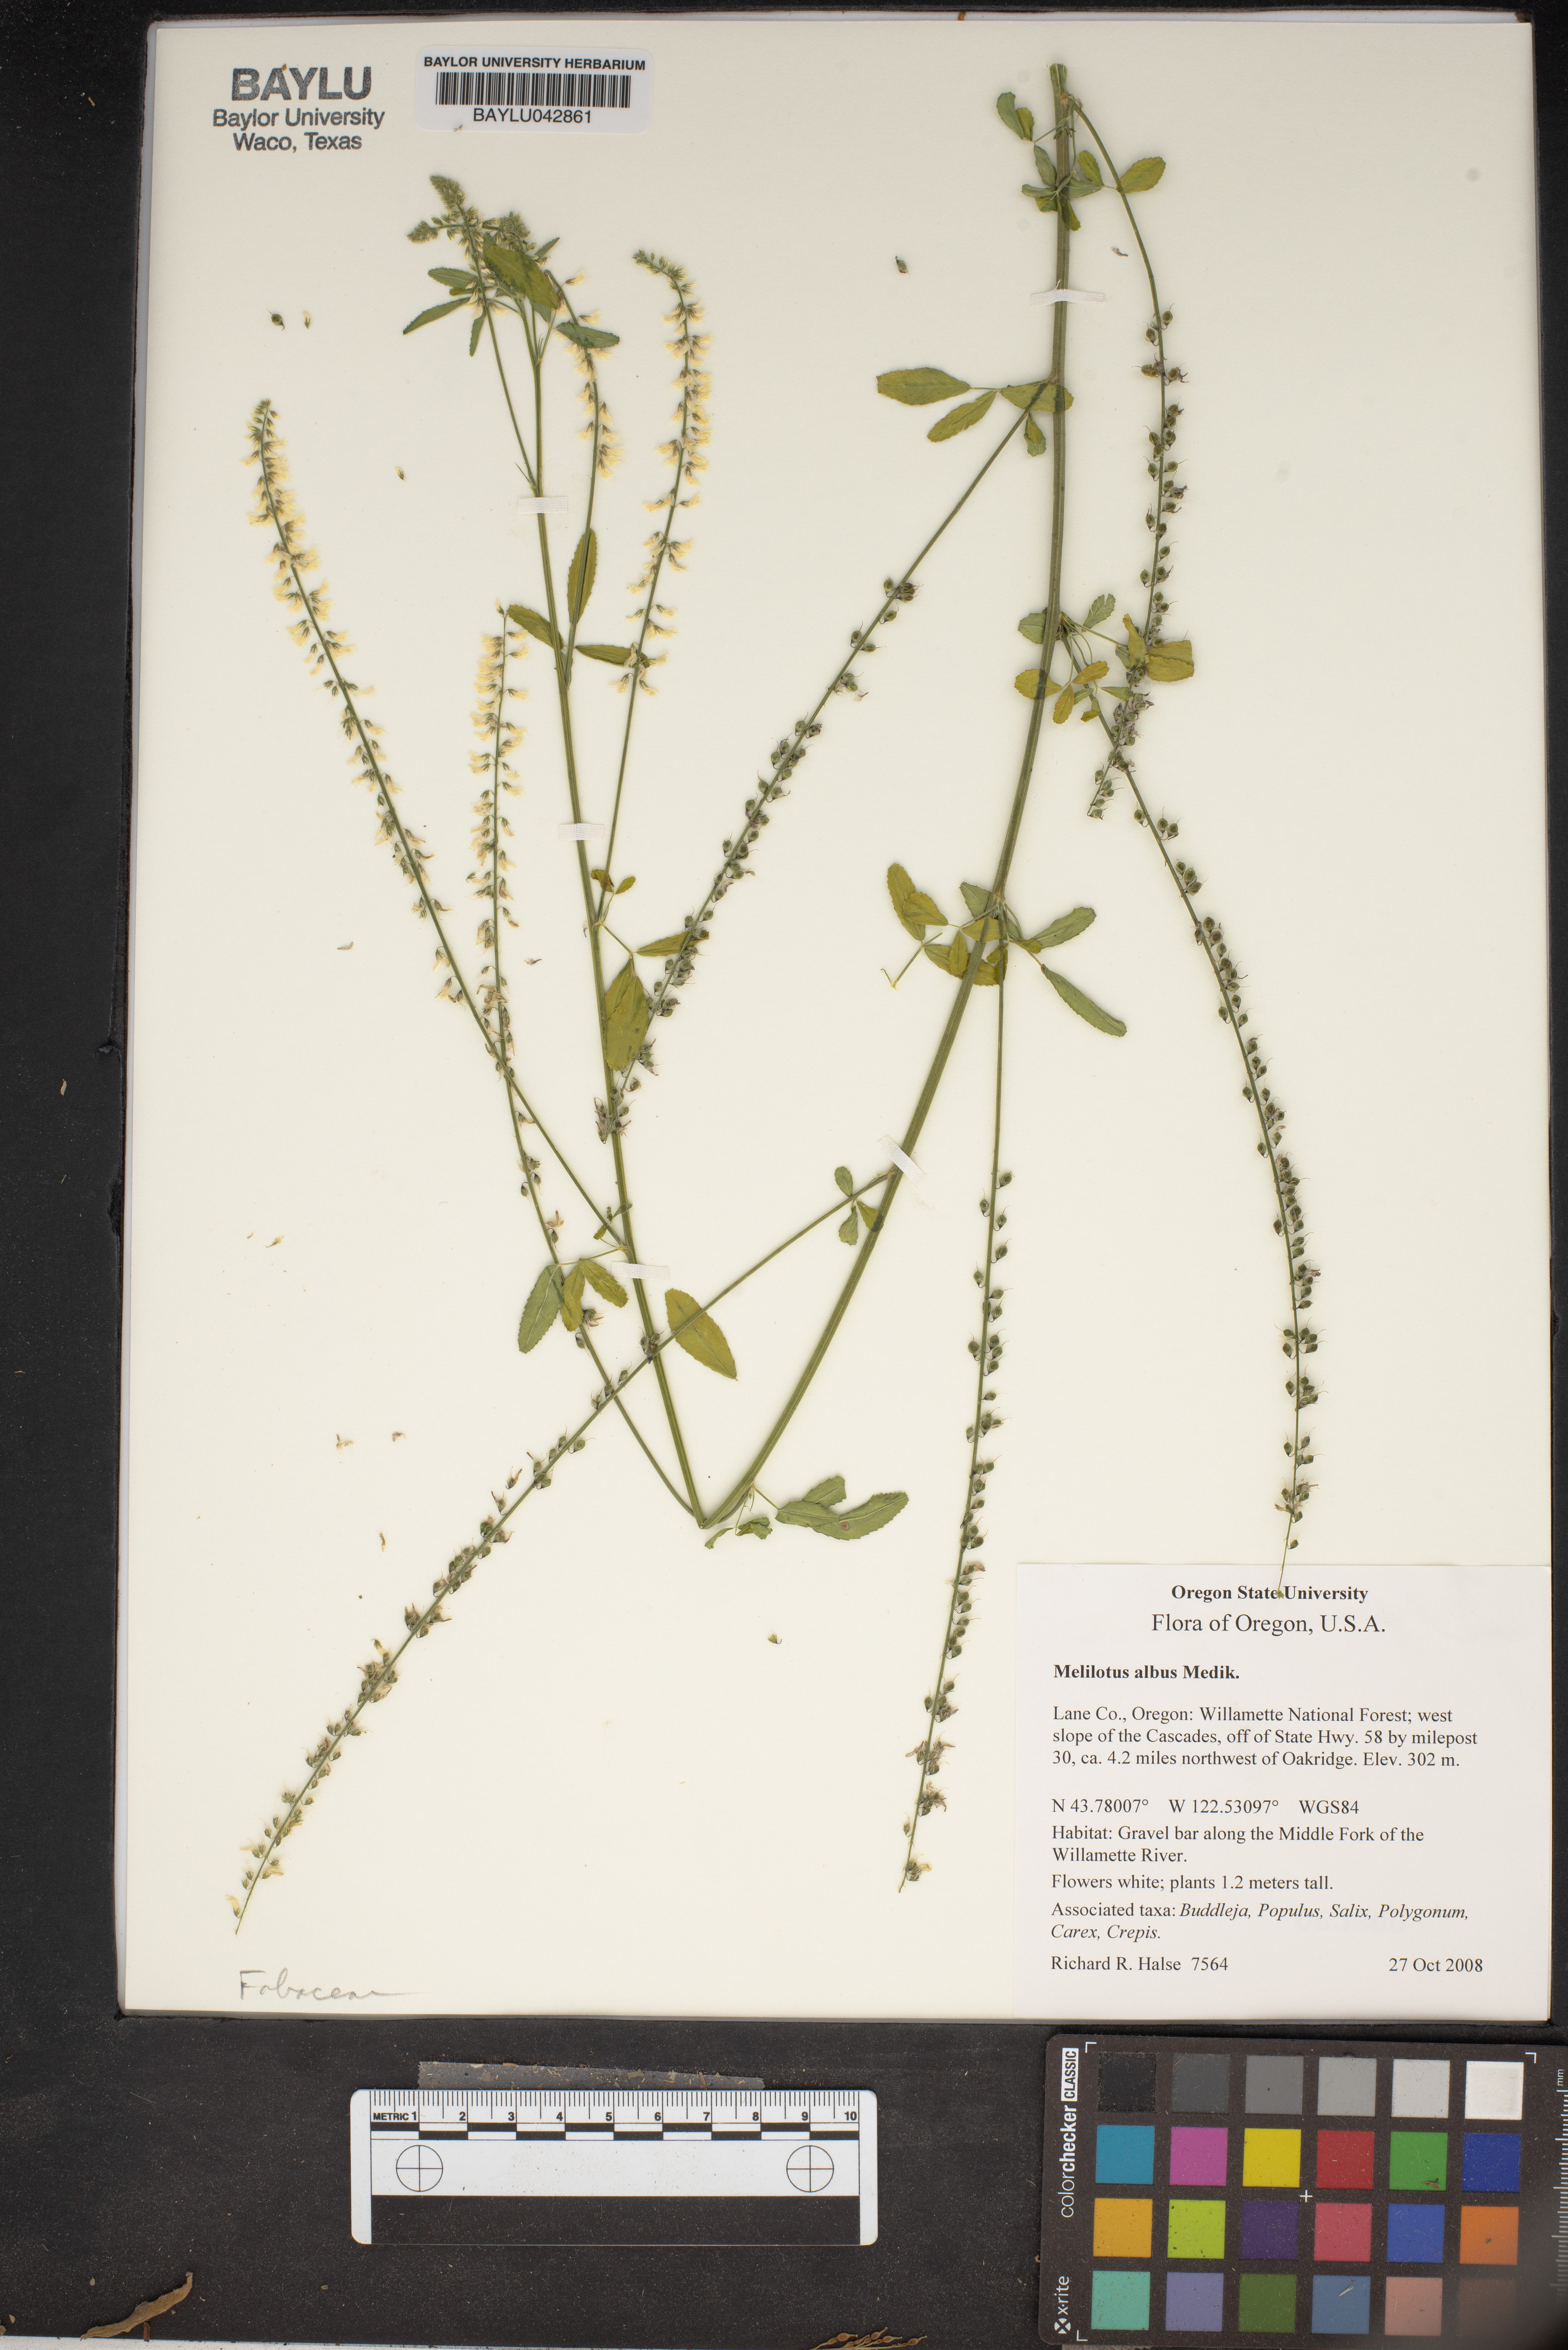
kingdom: Plantae
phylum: Tracheophyta
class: Magnoliopsida
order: Fabales
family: Fabaceae
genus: Melilotus
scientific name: Melilotus albus
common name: White melilot
